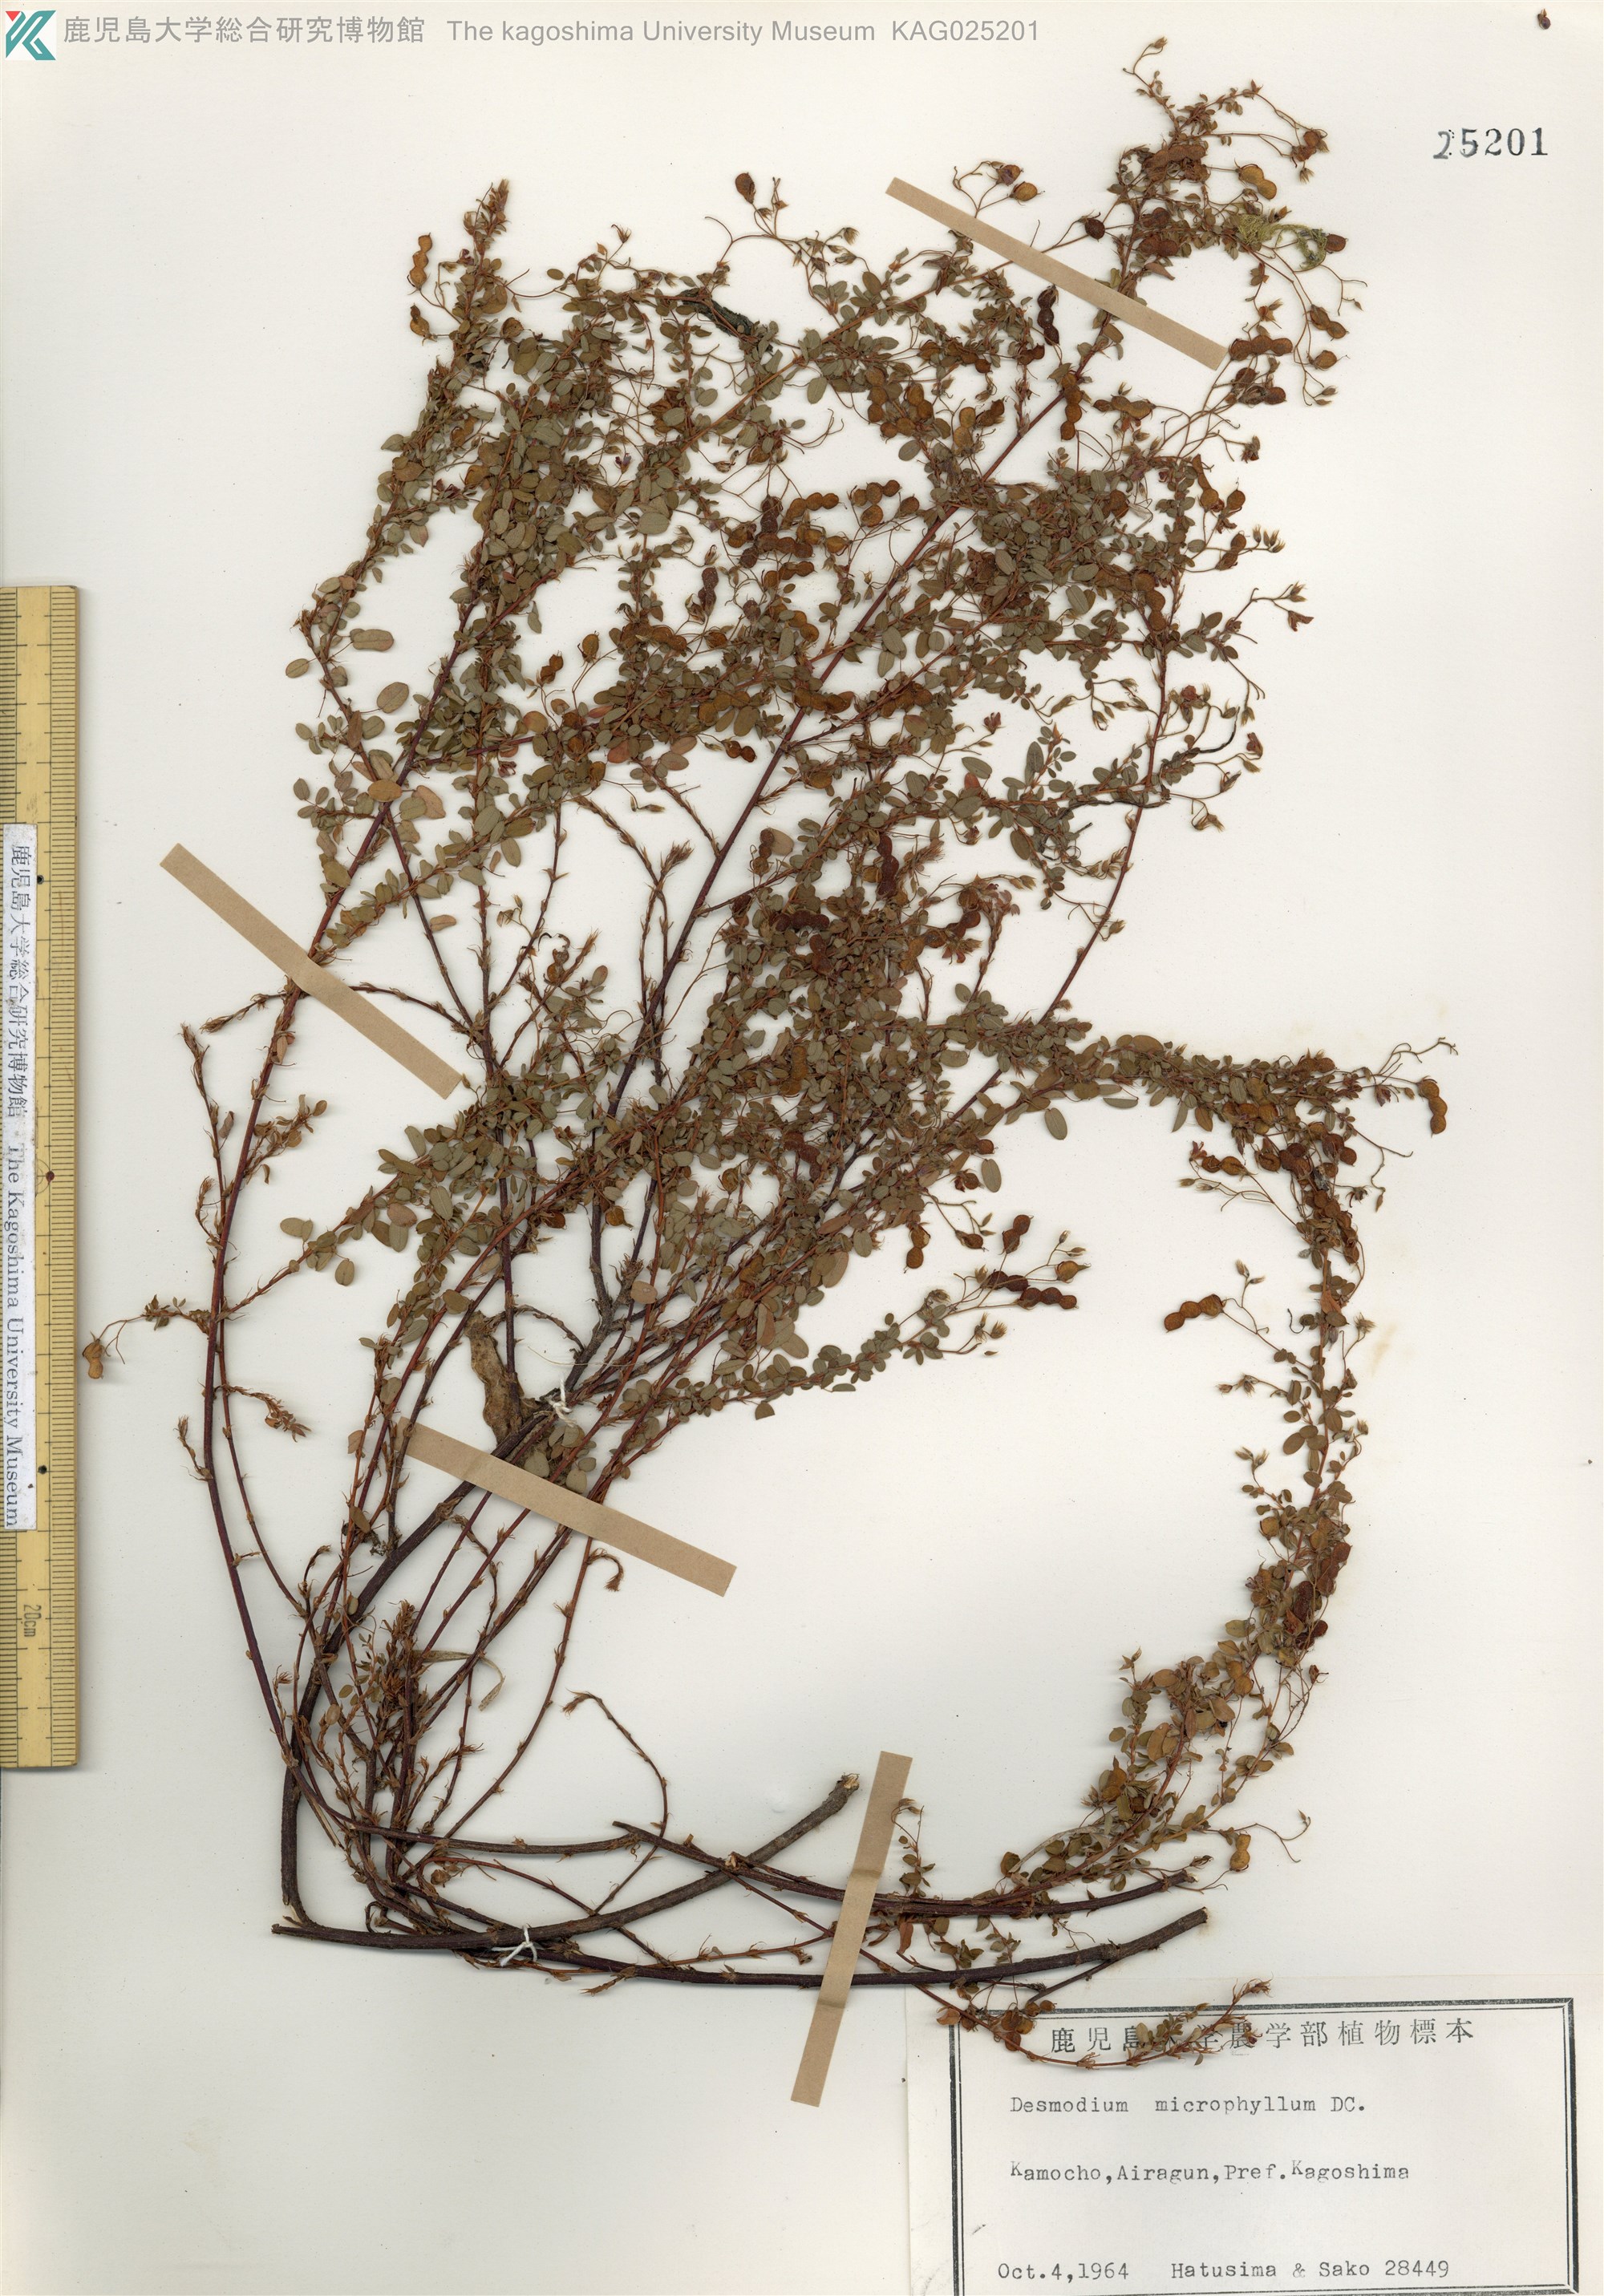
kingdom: Plantae
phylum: Tracheophyta
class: Magnoliopsida
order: Fabales
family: Fabaceae
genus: Leptodesmia
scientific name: Leptodesmia microphylla
